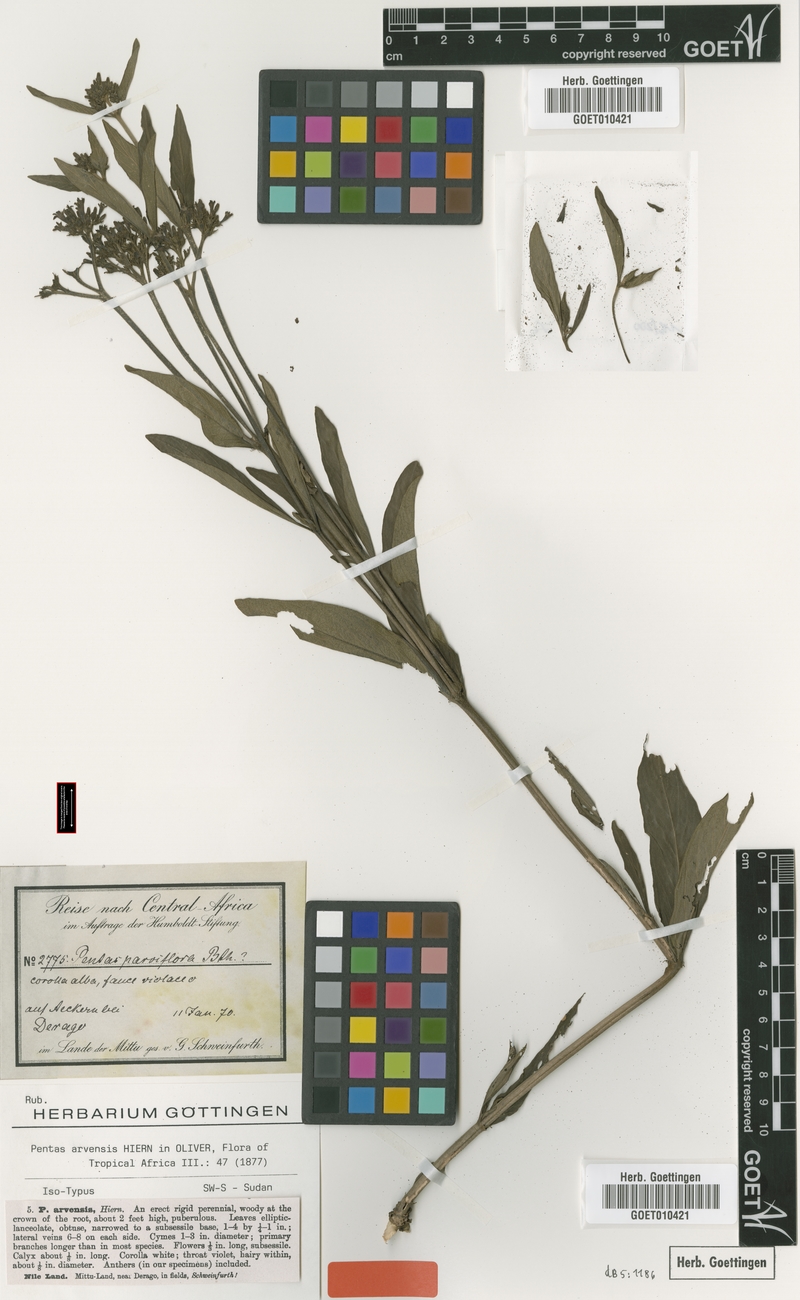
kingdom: Plantae
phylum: Tracheophyta
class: Magnoliopsida
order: Gentianales
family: Rubiaceae
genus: Pentas
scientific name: Pentas arvensis
